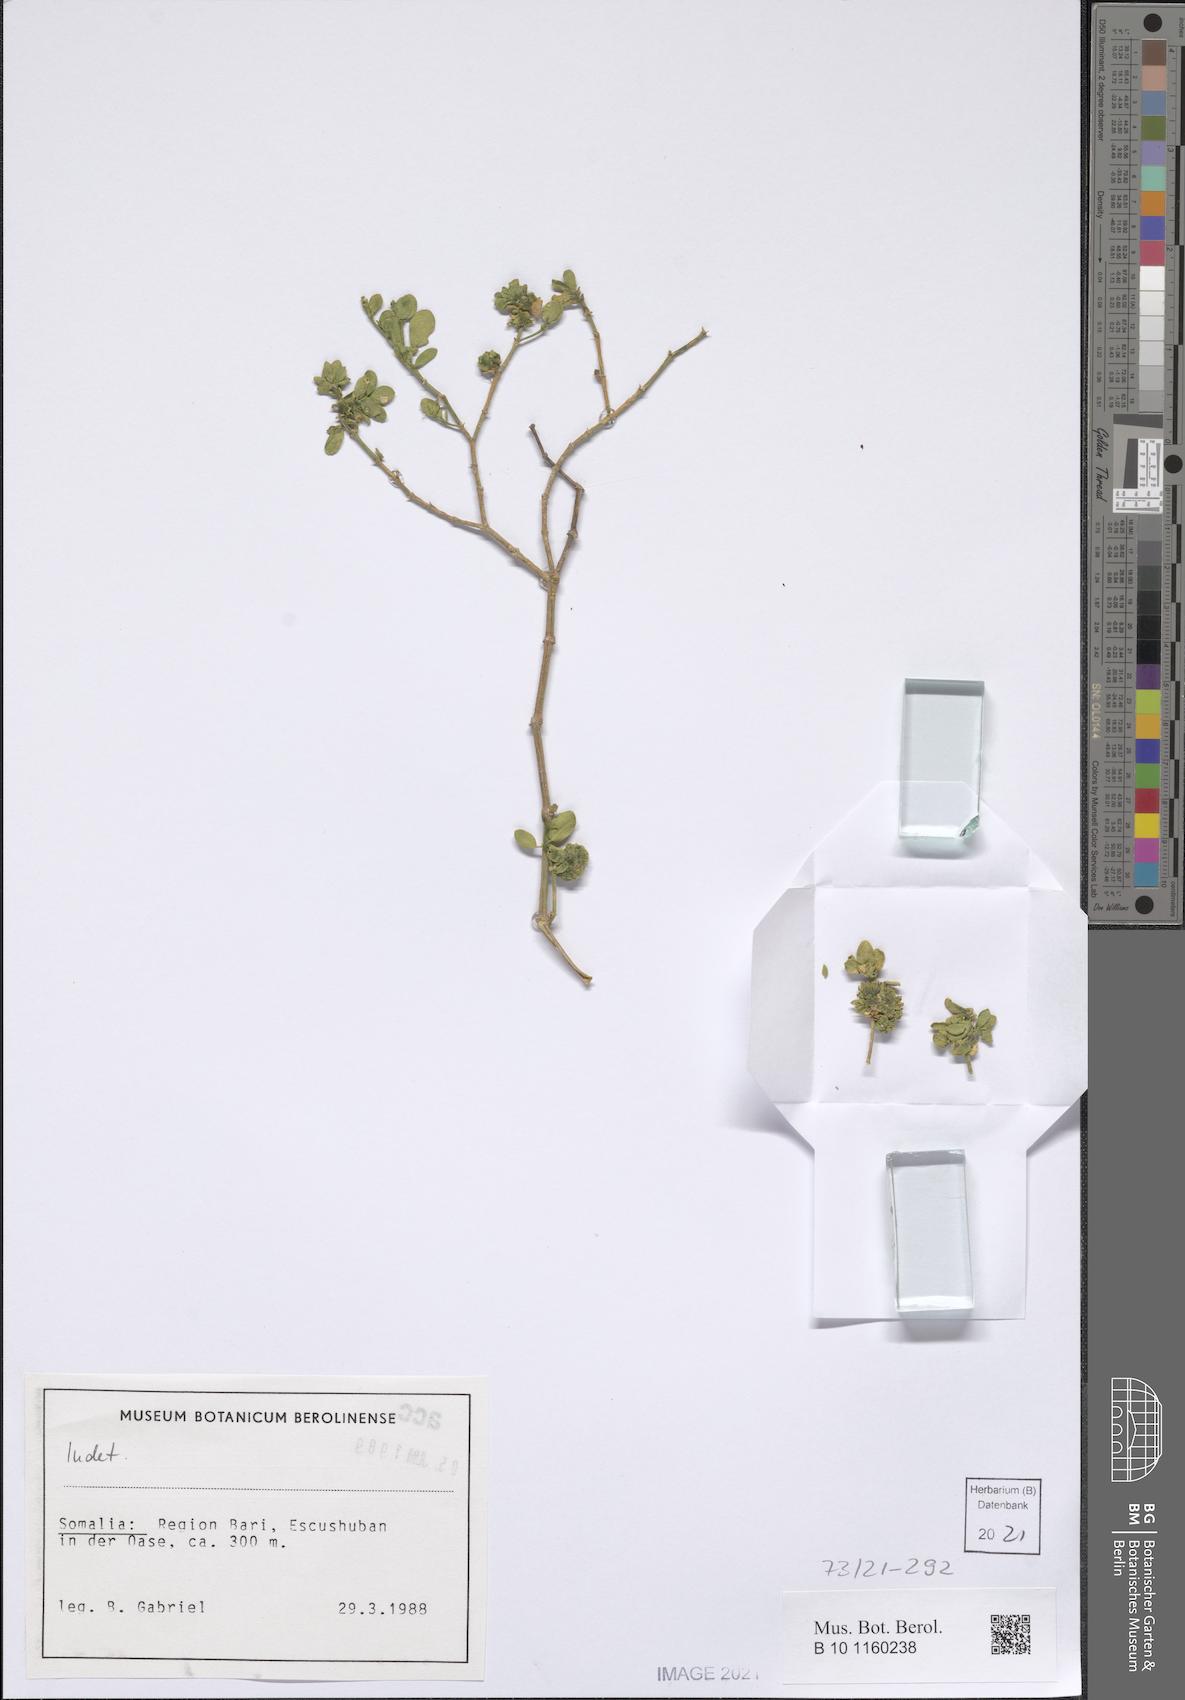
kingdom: Plantae
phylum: Tracheophyta
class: Magnoliopsida
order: Zygophyllales
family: Zygophyllaceae
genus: Fagonia
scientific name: Fagonia socotrana
